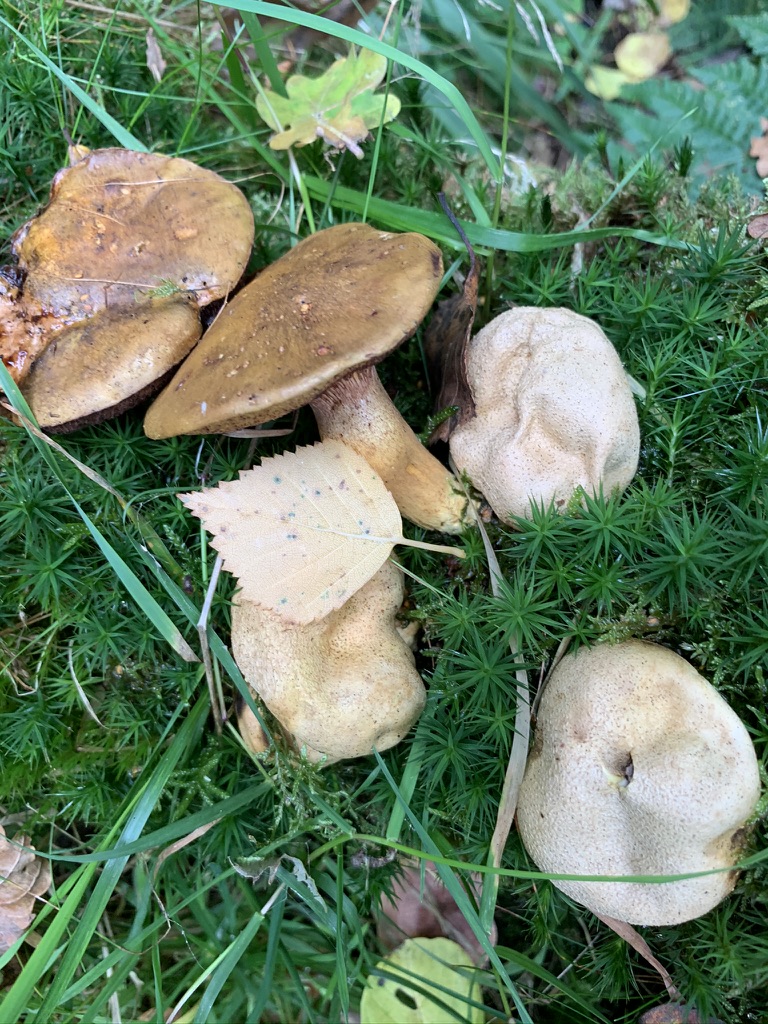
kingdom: Fungi
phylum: Basidiomycota
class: Agaricomycetes
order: Boletales
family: Boletaceae
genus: Pseudoboletus
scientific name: Pseudoboletus parasiticus
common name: snyltende rørhat
